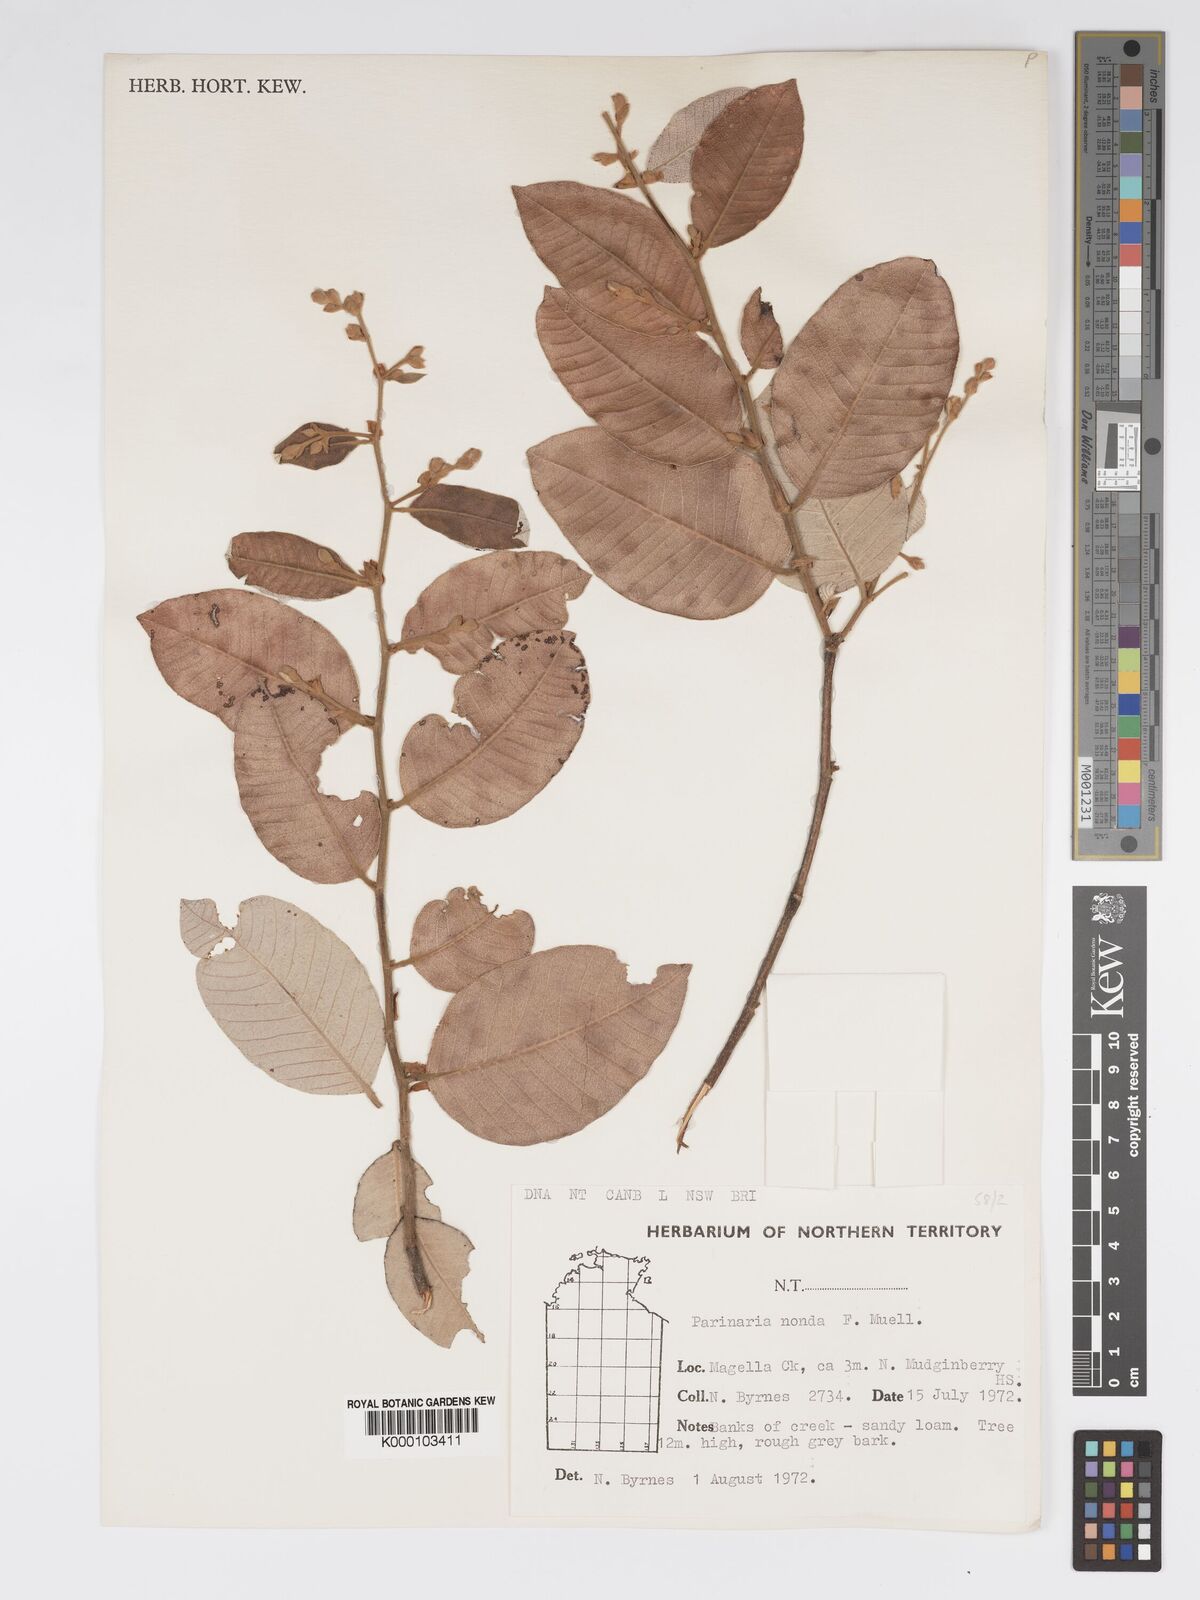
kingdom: Plantae
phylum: Tracheophyta
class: Magnoliopsida
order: Malpighiales
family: Chrysobalanaceae
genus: Parinari
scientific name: Parinari nonda
